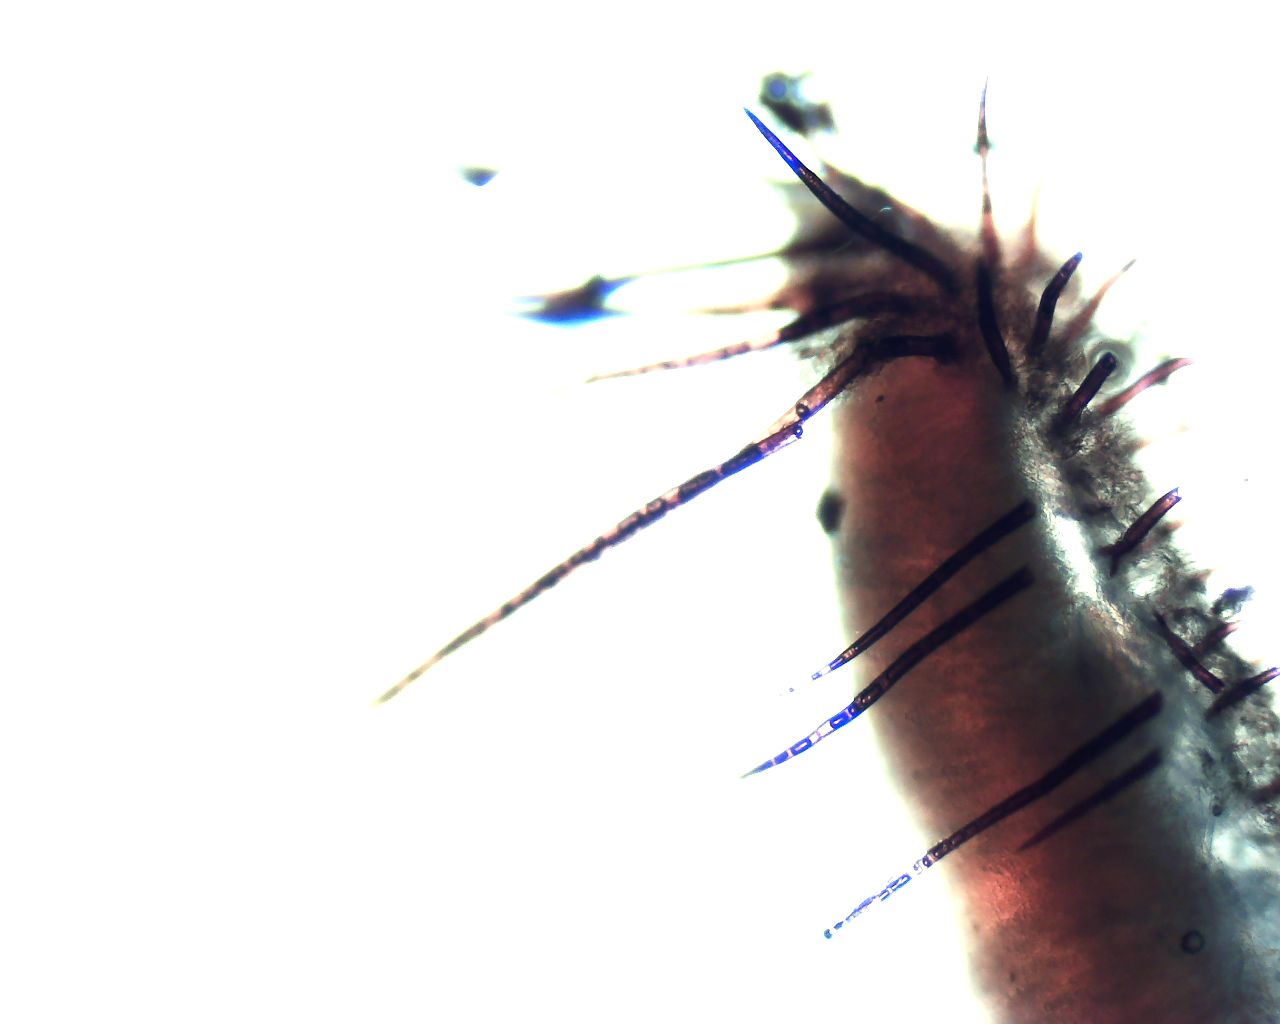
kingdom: Fungi
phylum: Ascomycota
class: Pezizomycetes
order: Pezizales
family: Pyronemataceae
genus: Scutellinia
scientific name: Scutellinia scutellata
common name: frynset skjoldbæger
